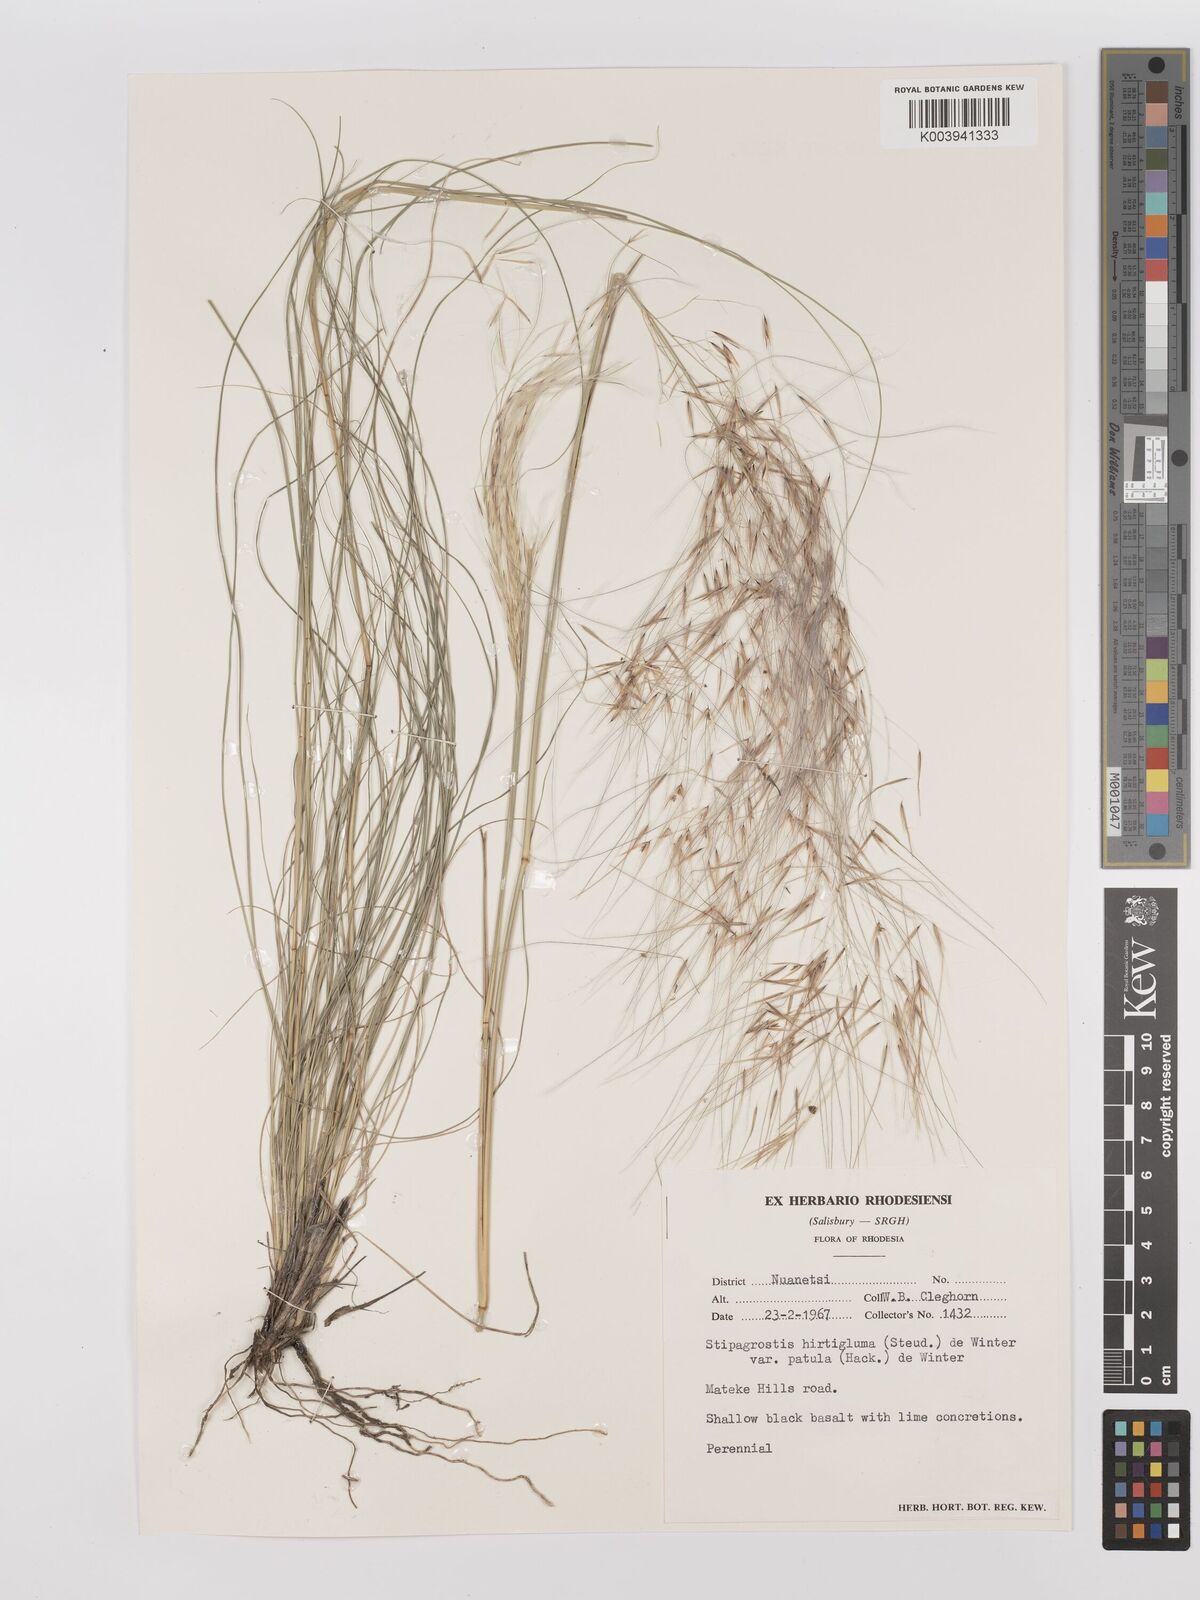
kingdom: Plantae
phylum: Tracheophyta
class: Liliopsida
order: Poales
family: Poaceae
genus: Stipagrostis
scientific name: Stipagrostis hirtigluma
